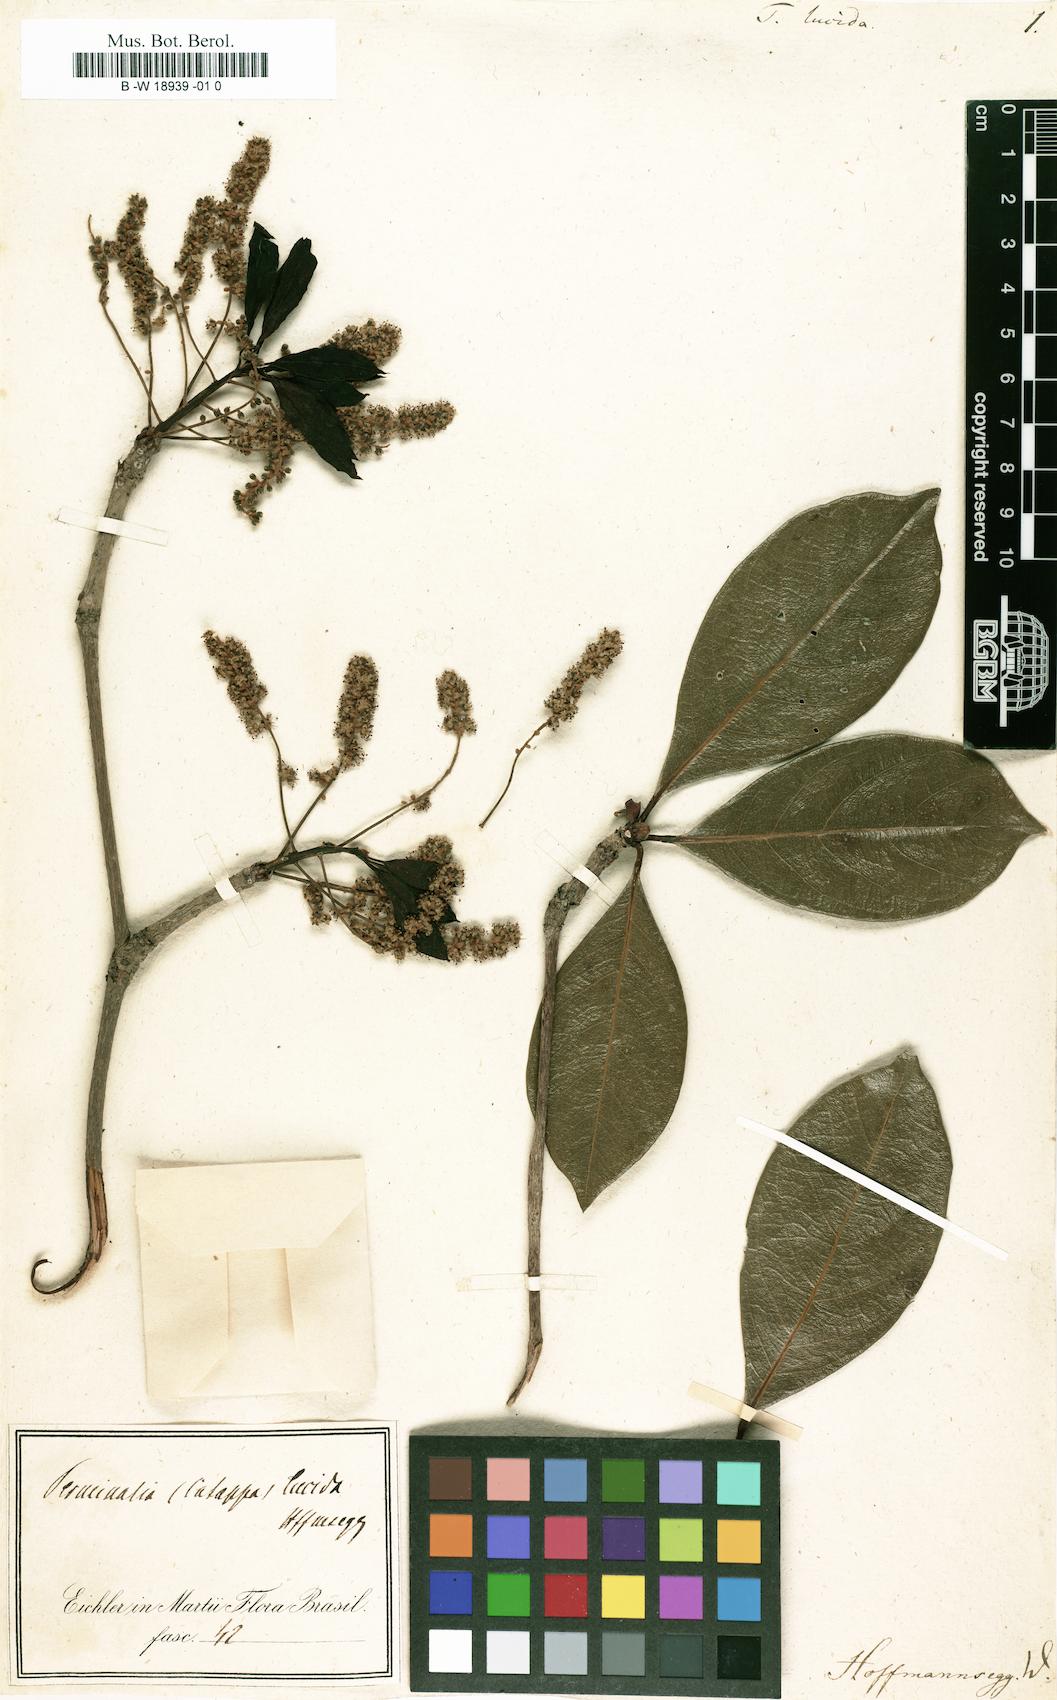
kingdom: Plantae
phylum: Tracheophyta
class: Magnoliopsida
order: Myrtales
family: Combretaceae
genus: Terminalia
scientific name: Terminalia lucida
